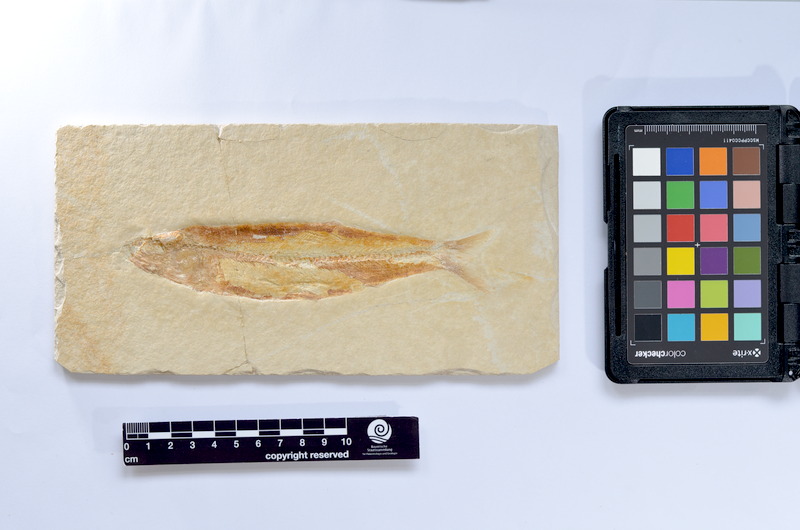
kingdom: Animalia
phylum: Chordata
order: Elopiformes
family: Anaethalionidae
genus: Anaethalion
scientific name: Anaethalion knorri
